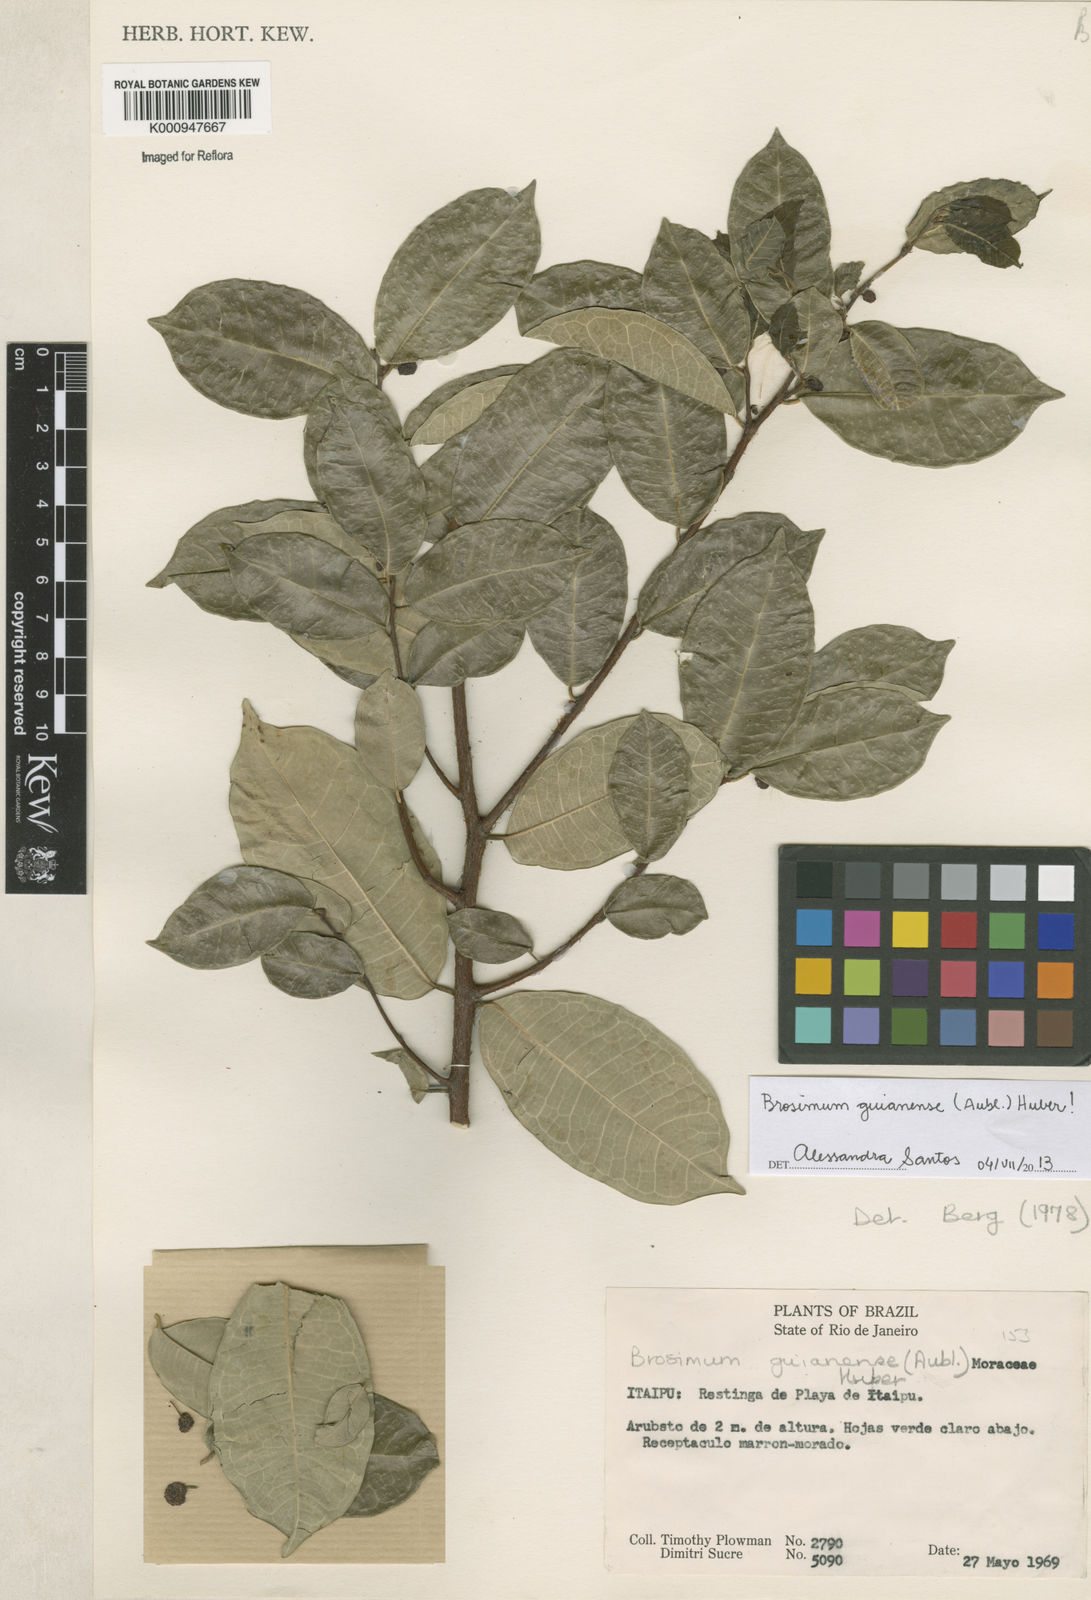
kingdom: Plantae
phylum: Tracheophyta
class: Magnoliopsida
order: Rosales
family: Moraceae
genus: Brosimum
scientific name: Brosimum
